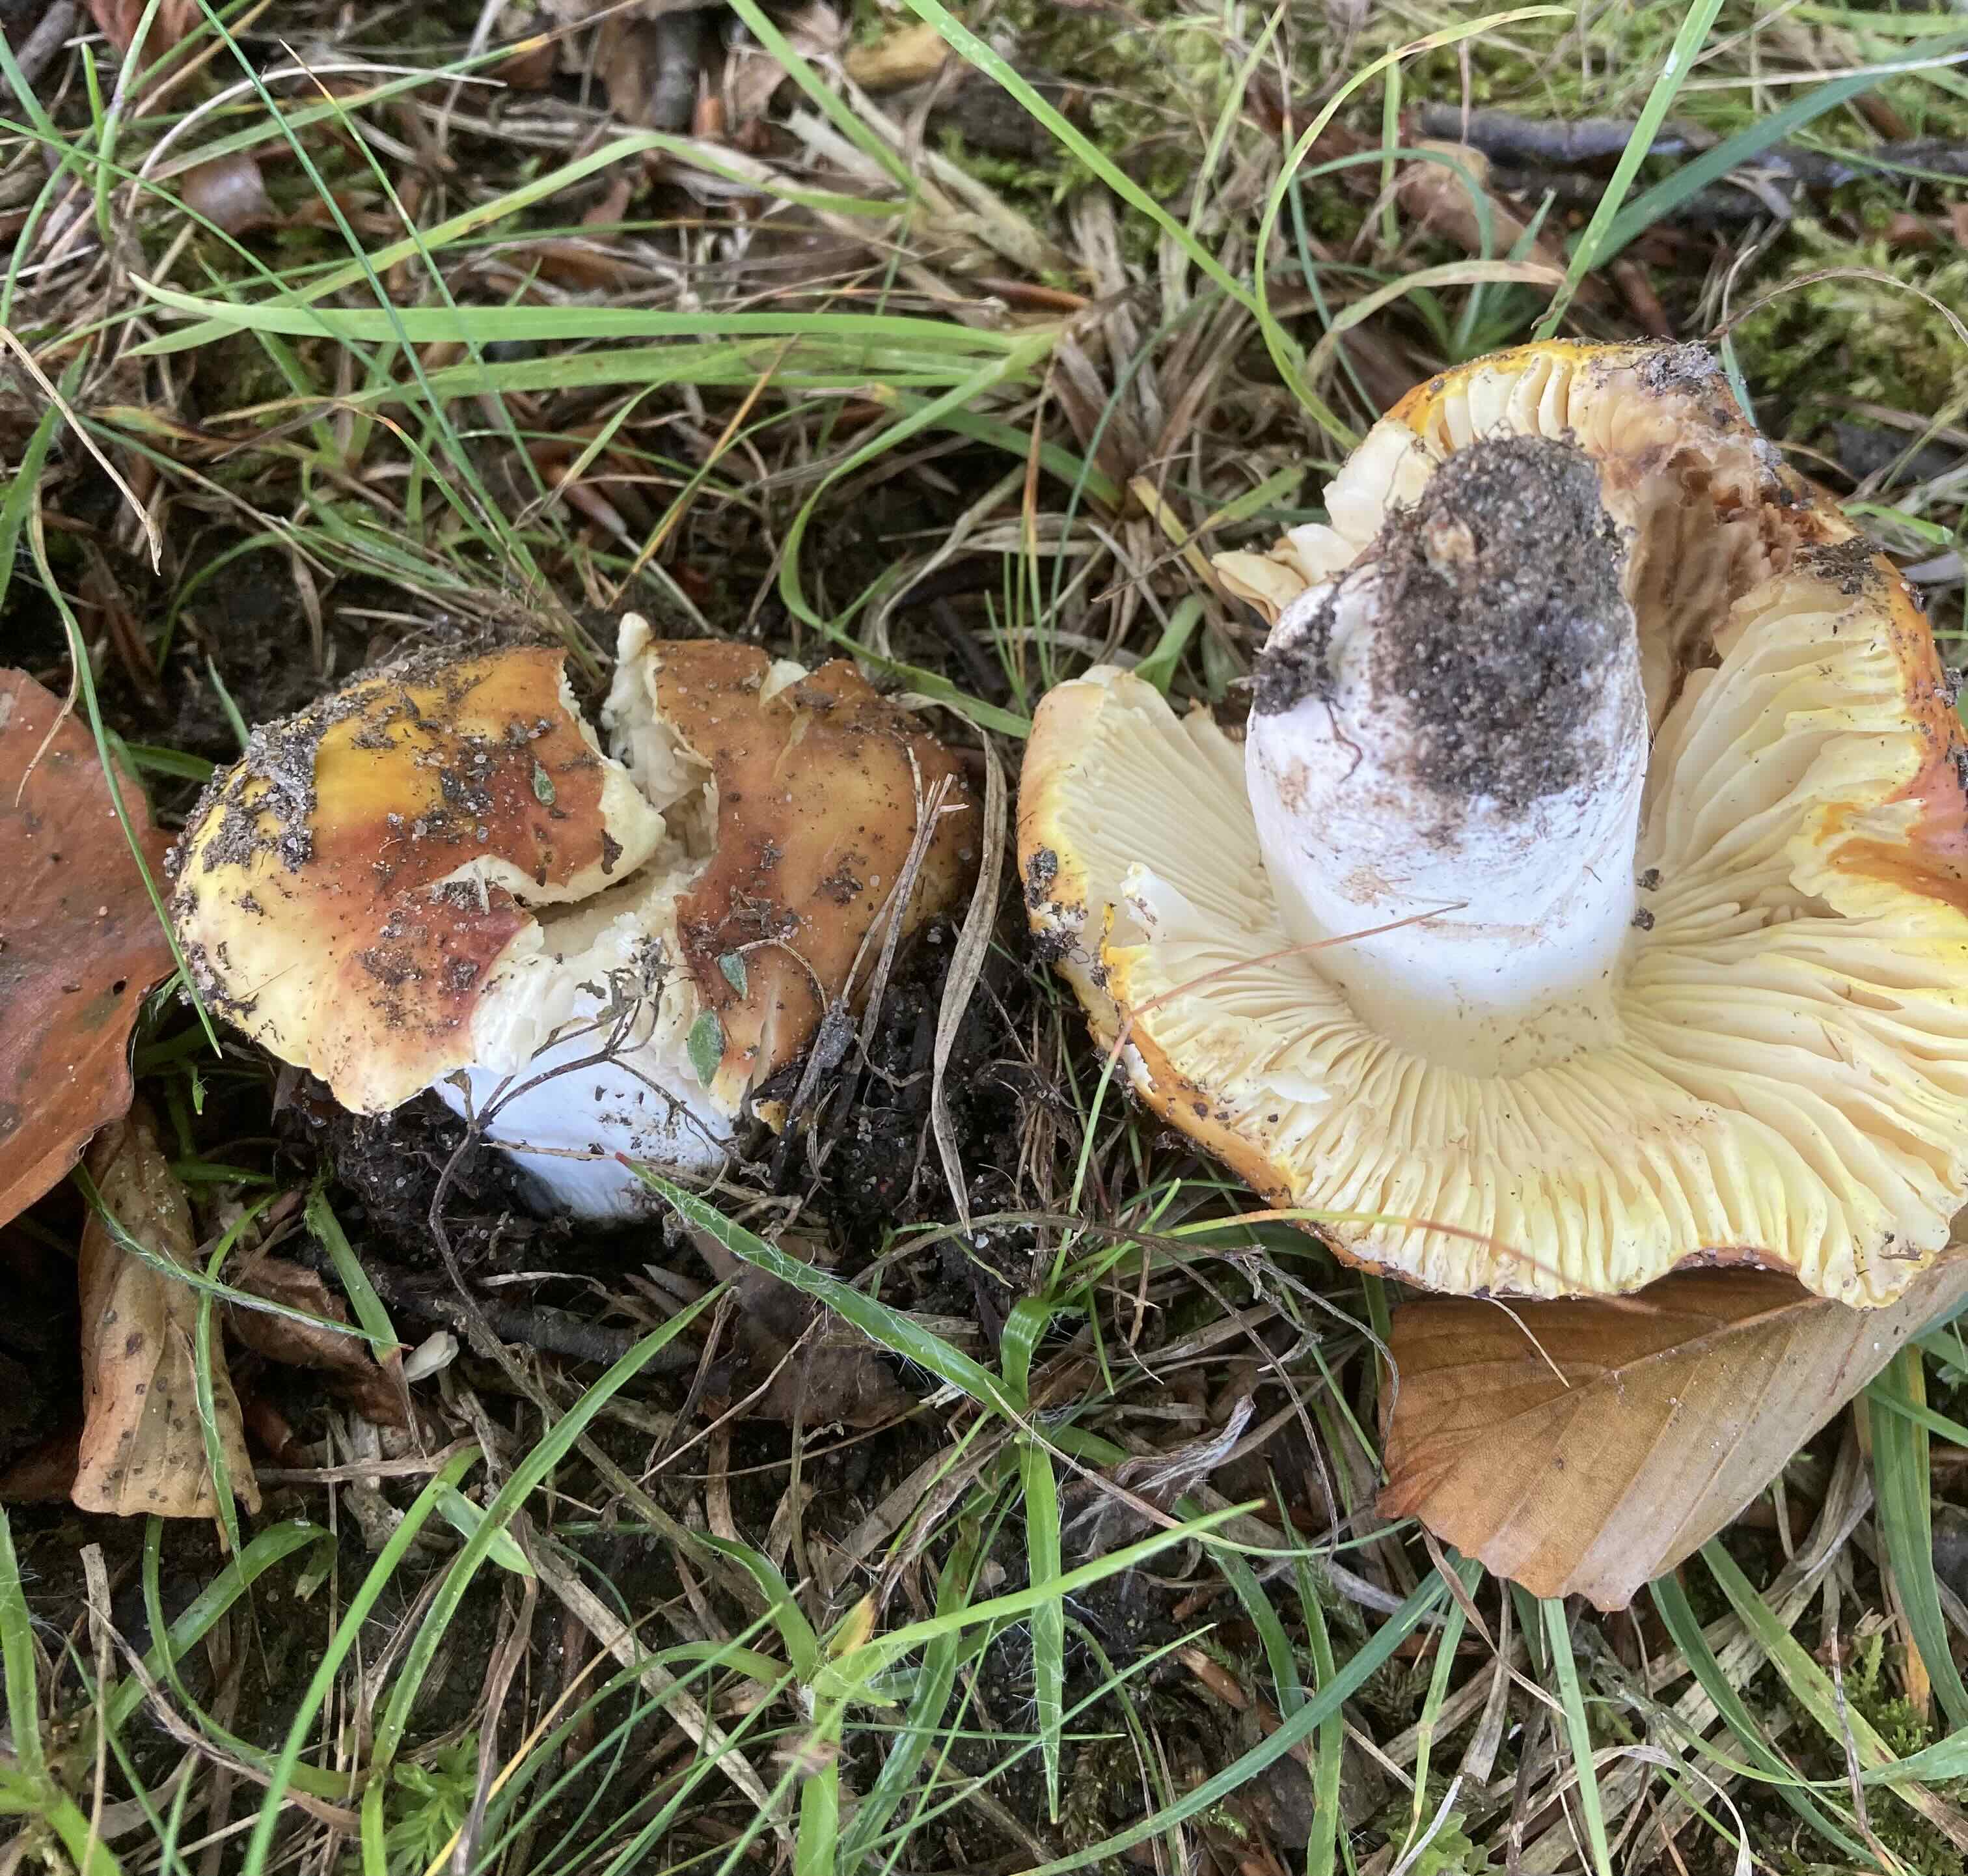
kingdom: Fungi
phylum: Basidiomycota
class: Agaricomycetes
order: Russulales
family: Russulaceae
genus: Russula
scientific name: Russula aurea
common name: gylden skørhat
